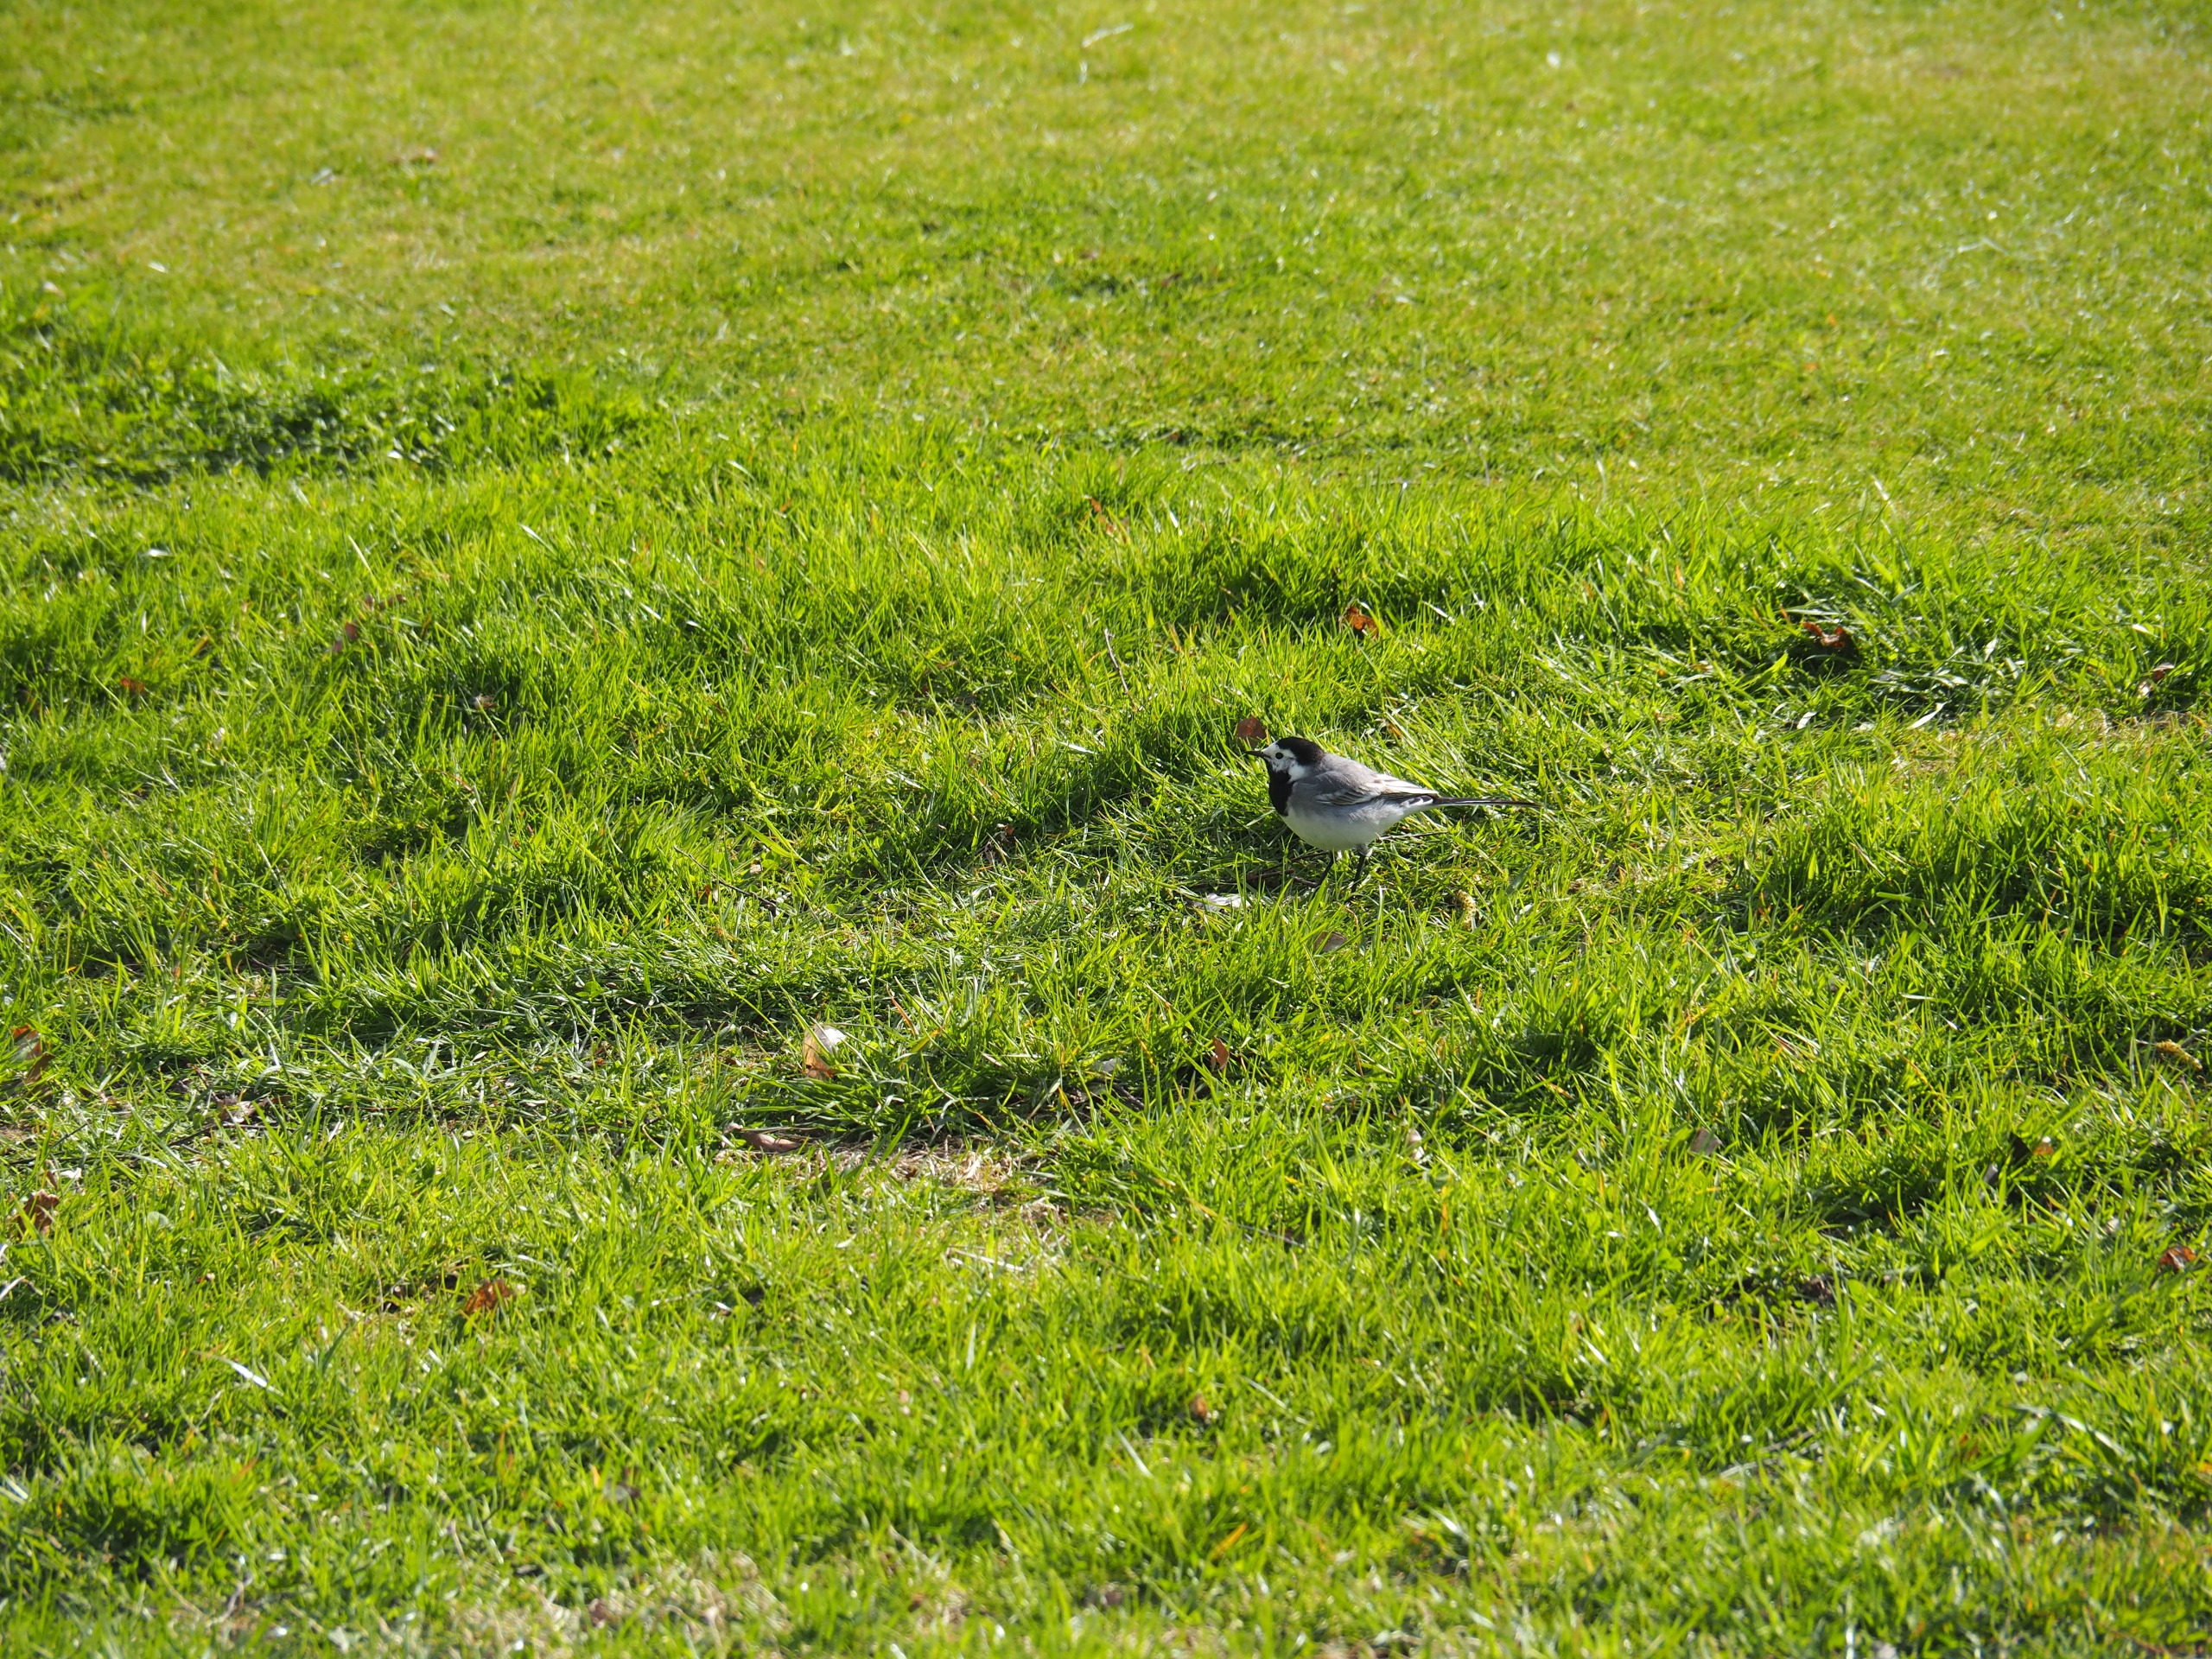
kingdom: Animalia
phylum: Chordata
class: Aves
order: Passeriformes
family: Motacillidae
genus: Motacilla
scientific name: Motacilla alba
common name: Hvid vipstjert
